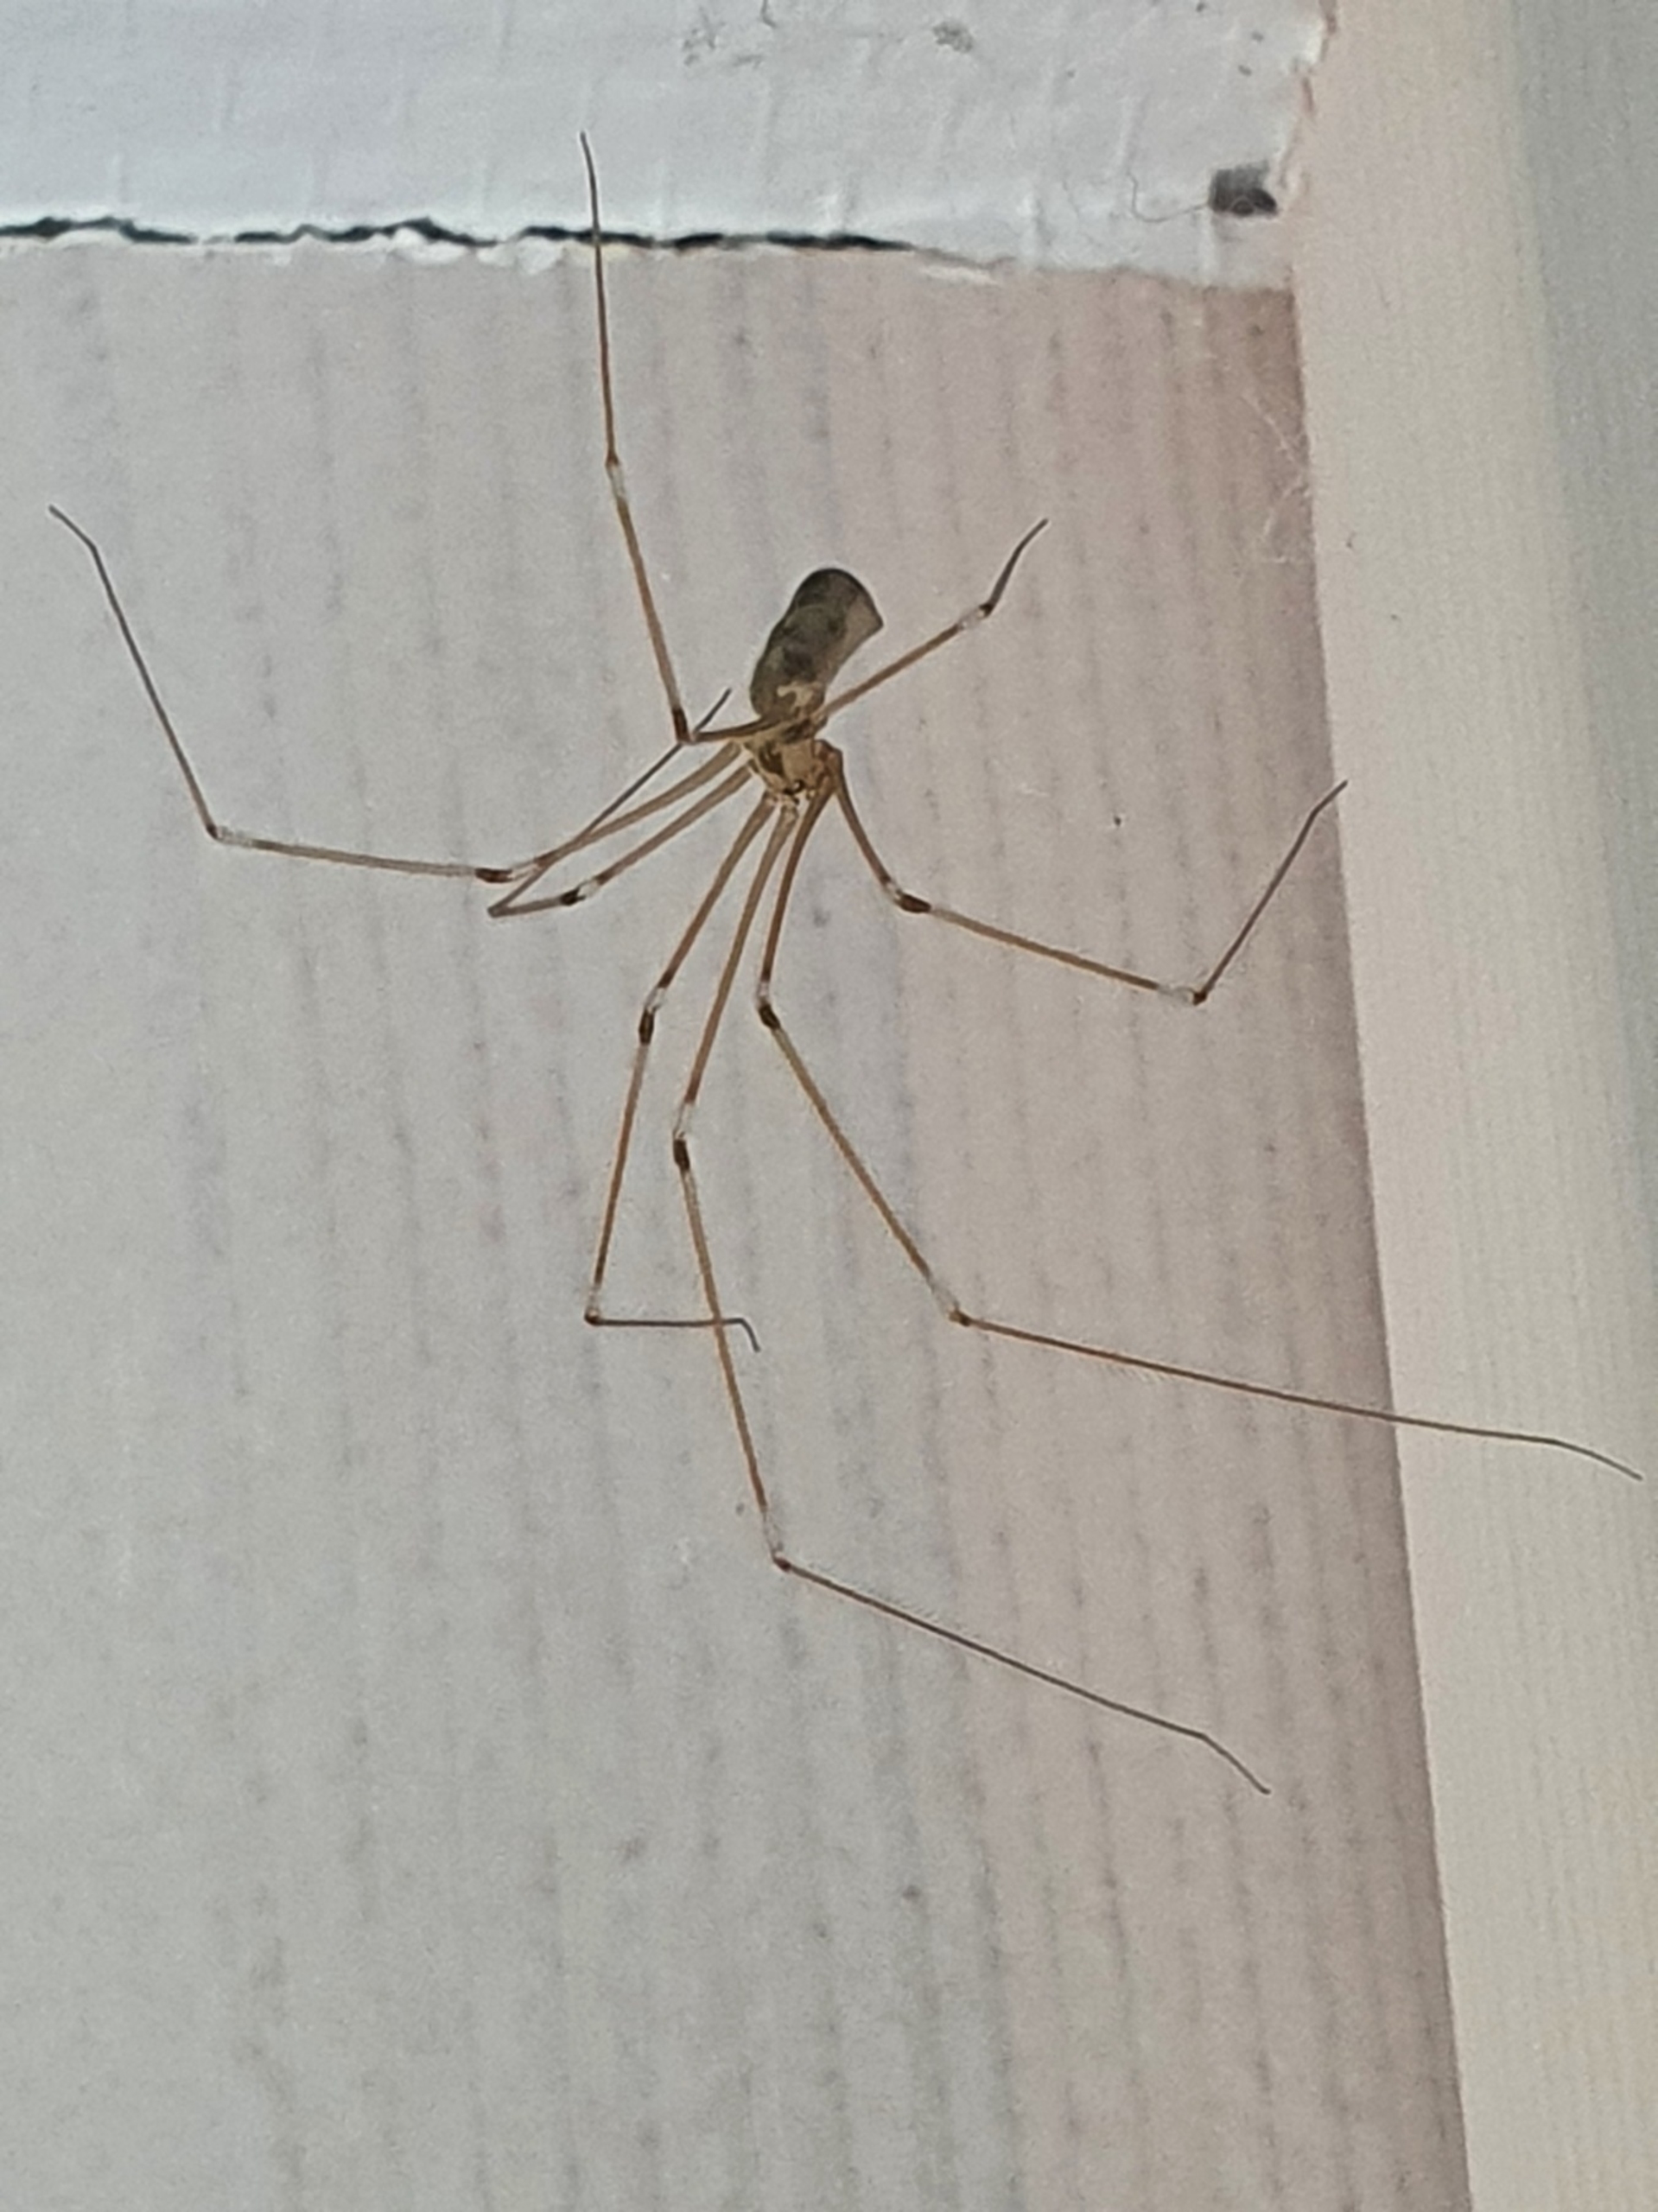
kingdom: Animalia
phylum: Arthropoda
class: Arachnida
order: Araneae
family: Pholcidae
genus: Pholcus
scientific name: Pholcus phalangioides
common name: Mejeredderkop
